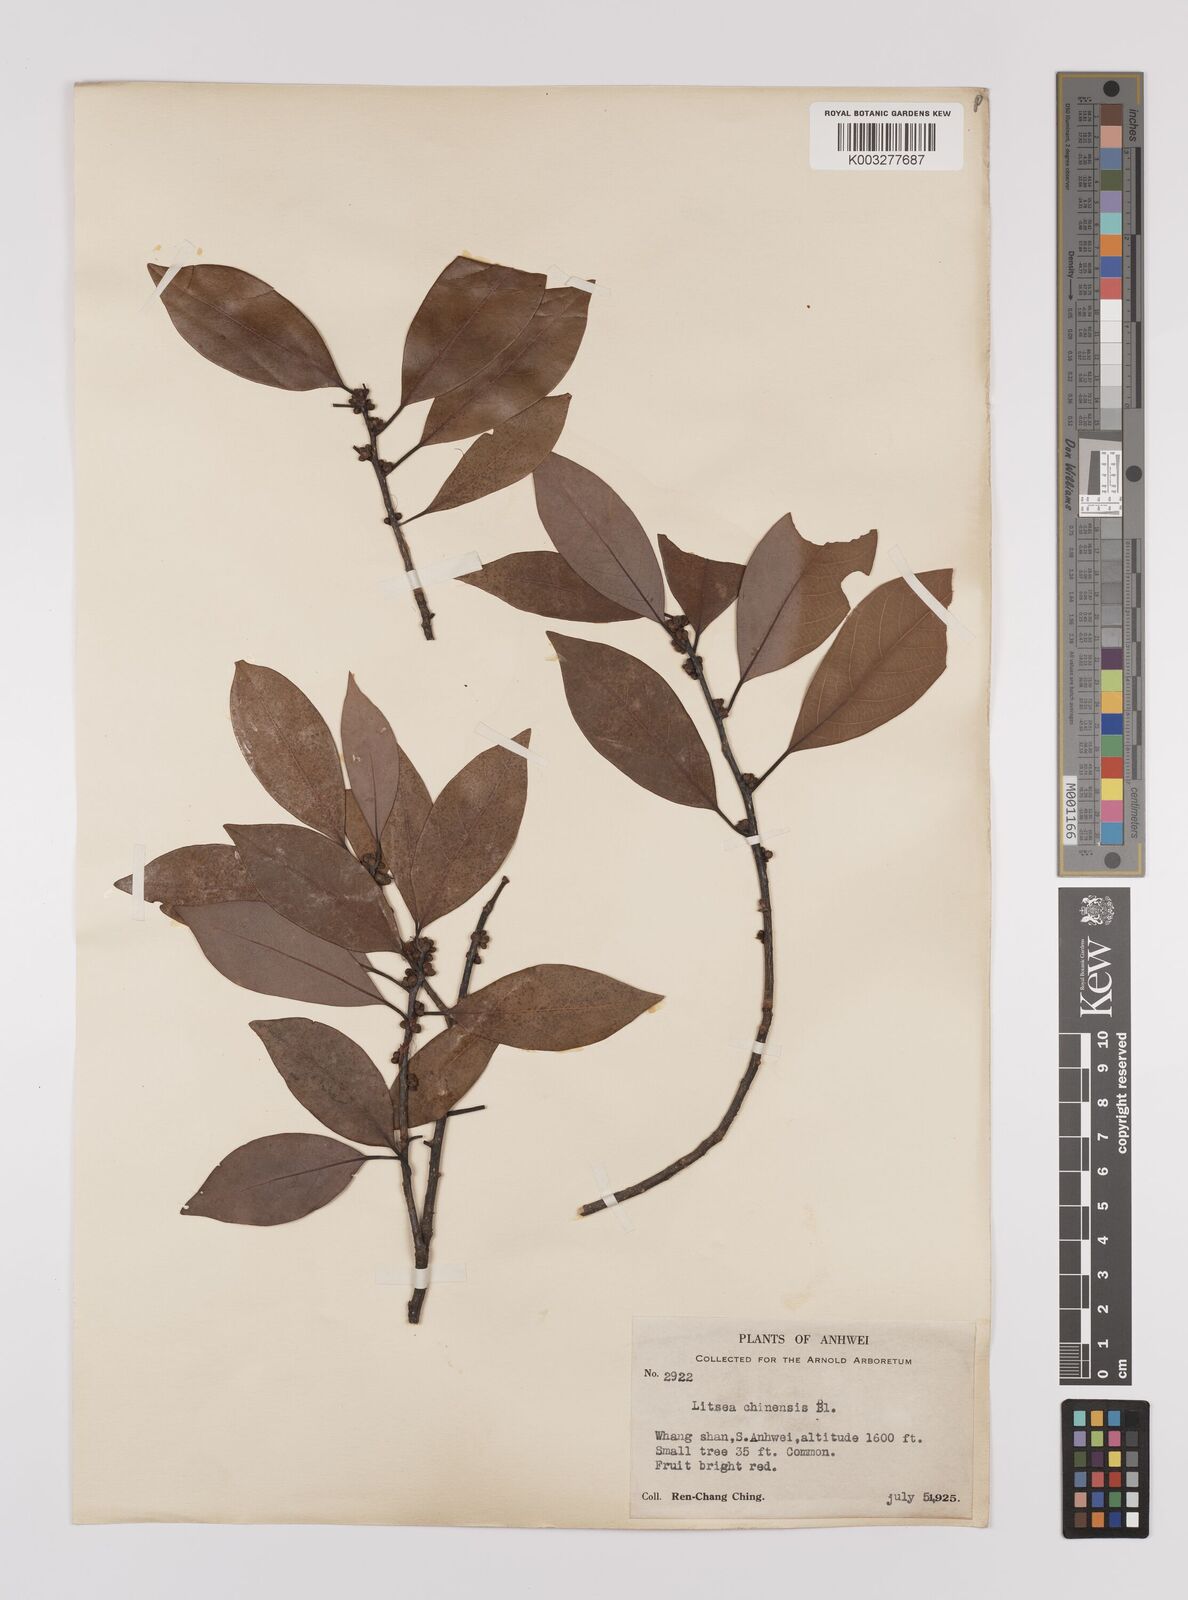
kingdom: Plantae
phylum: Tracheophyta
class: Magnoliopsida
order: Laurales
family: Lauraceae
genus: Litsea
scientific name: Litsea rotundifolia
